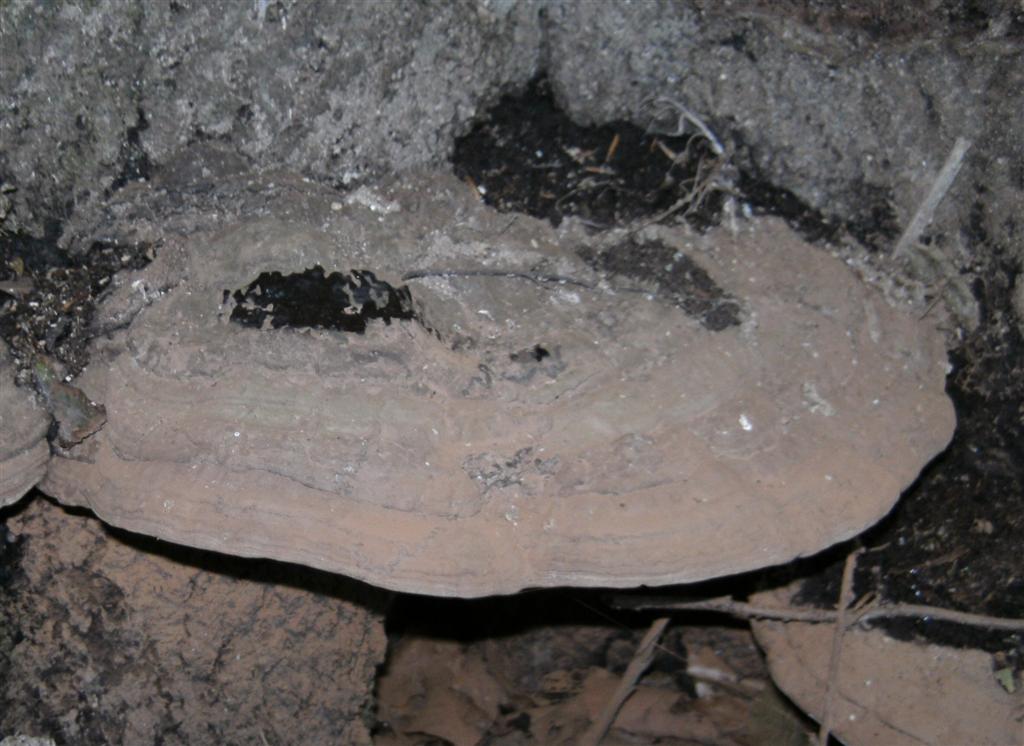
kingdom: Fungi
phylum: Basidiomycota
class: Agaricomycetes
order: Polyporales
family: Polyporaceae
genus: Ganoderma
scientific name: Ganoderma pfeifferi
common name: kobberrød lakporesvamp
